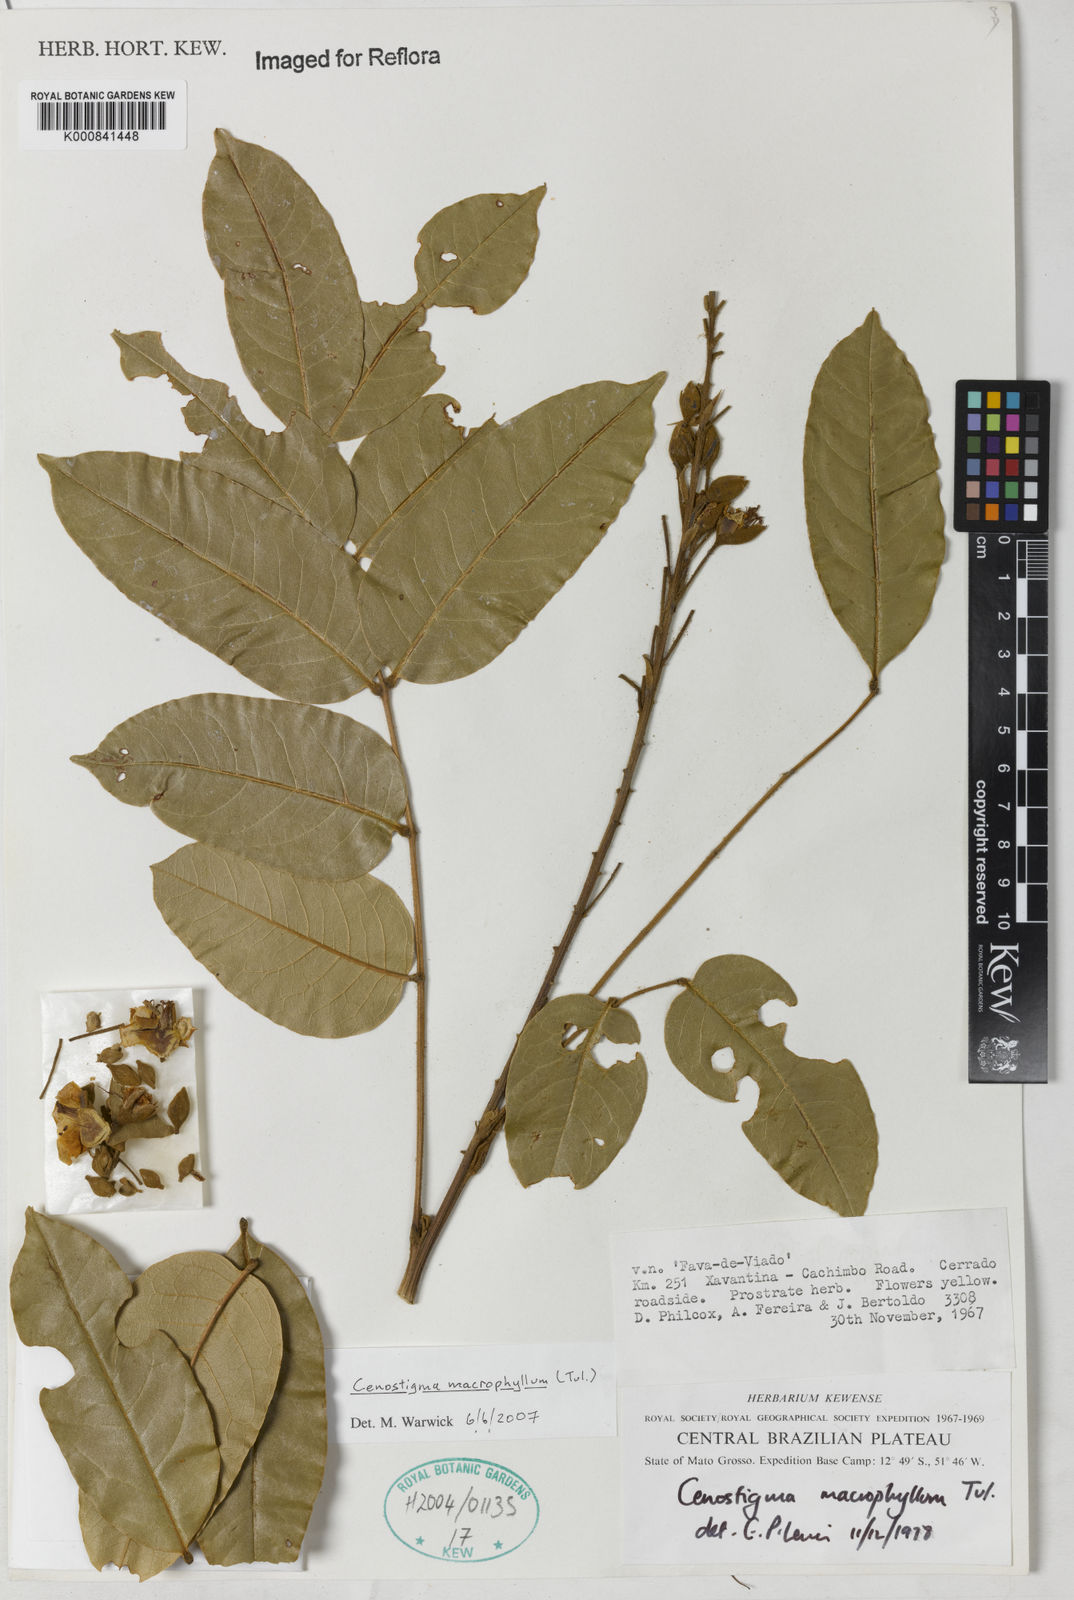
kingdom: Plantae
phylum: Tracheophyta
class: Magnoliopsida
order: Fabales
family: Fabaceae
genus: Cenostigma
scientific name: Cenostigma macrophyllum
